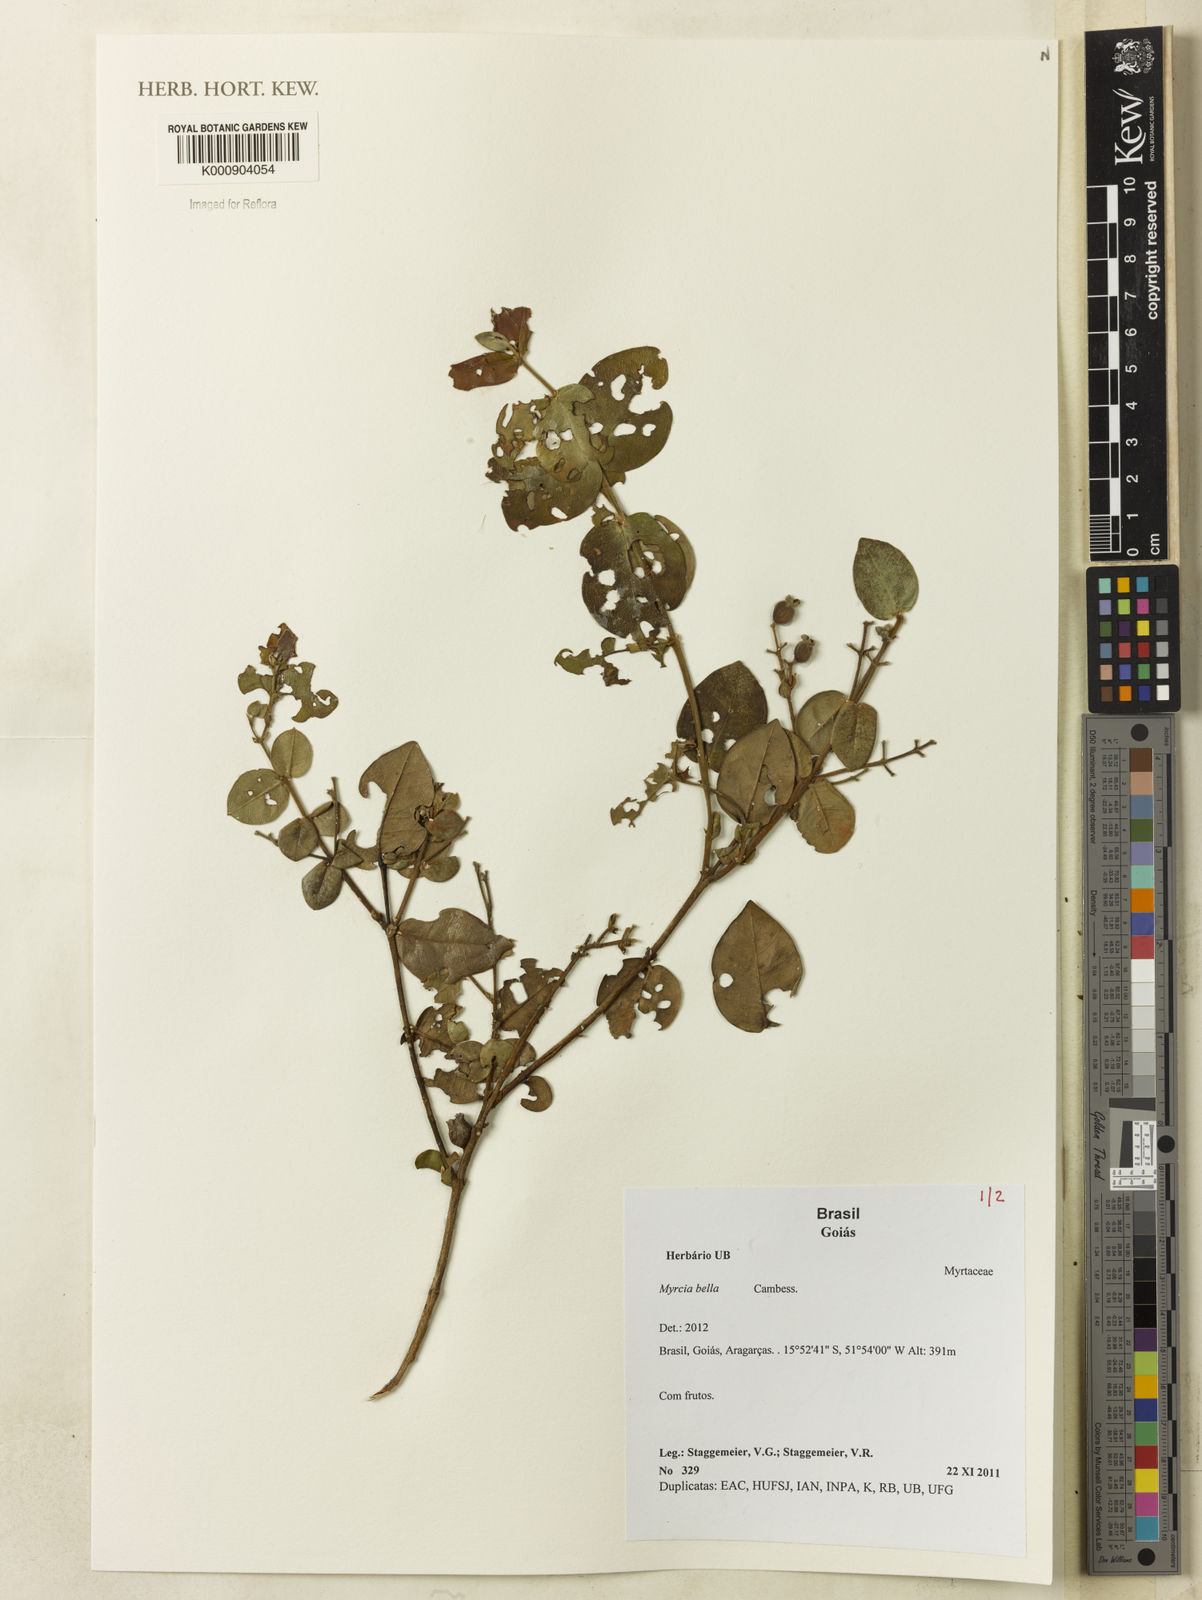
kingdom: Plantae
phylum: Tracheophyta
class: Magnoliopsida
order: Myrtales
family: Myrtaceae
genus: Myrcia
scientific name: Myrcia bella
